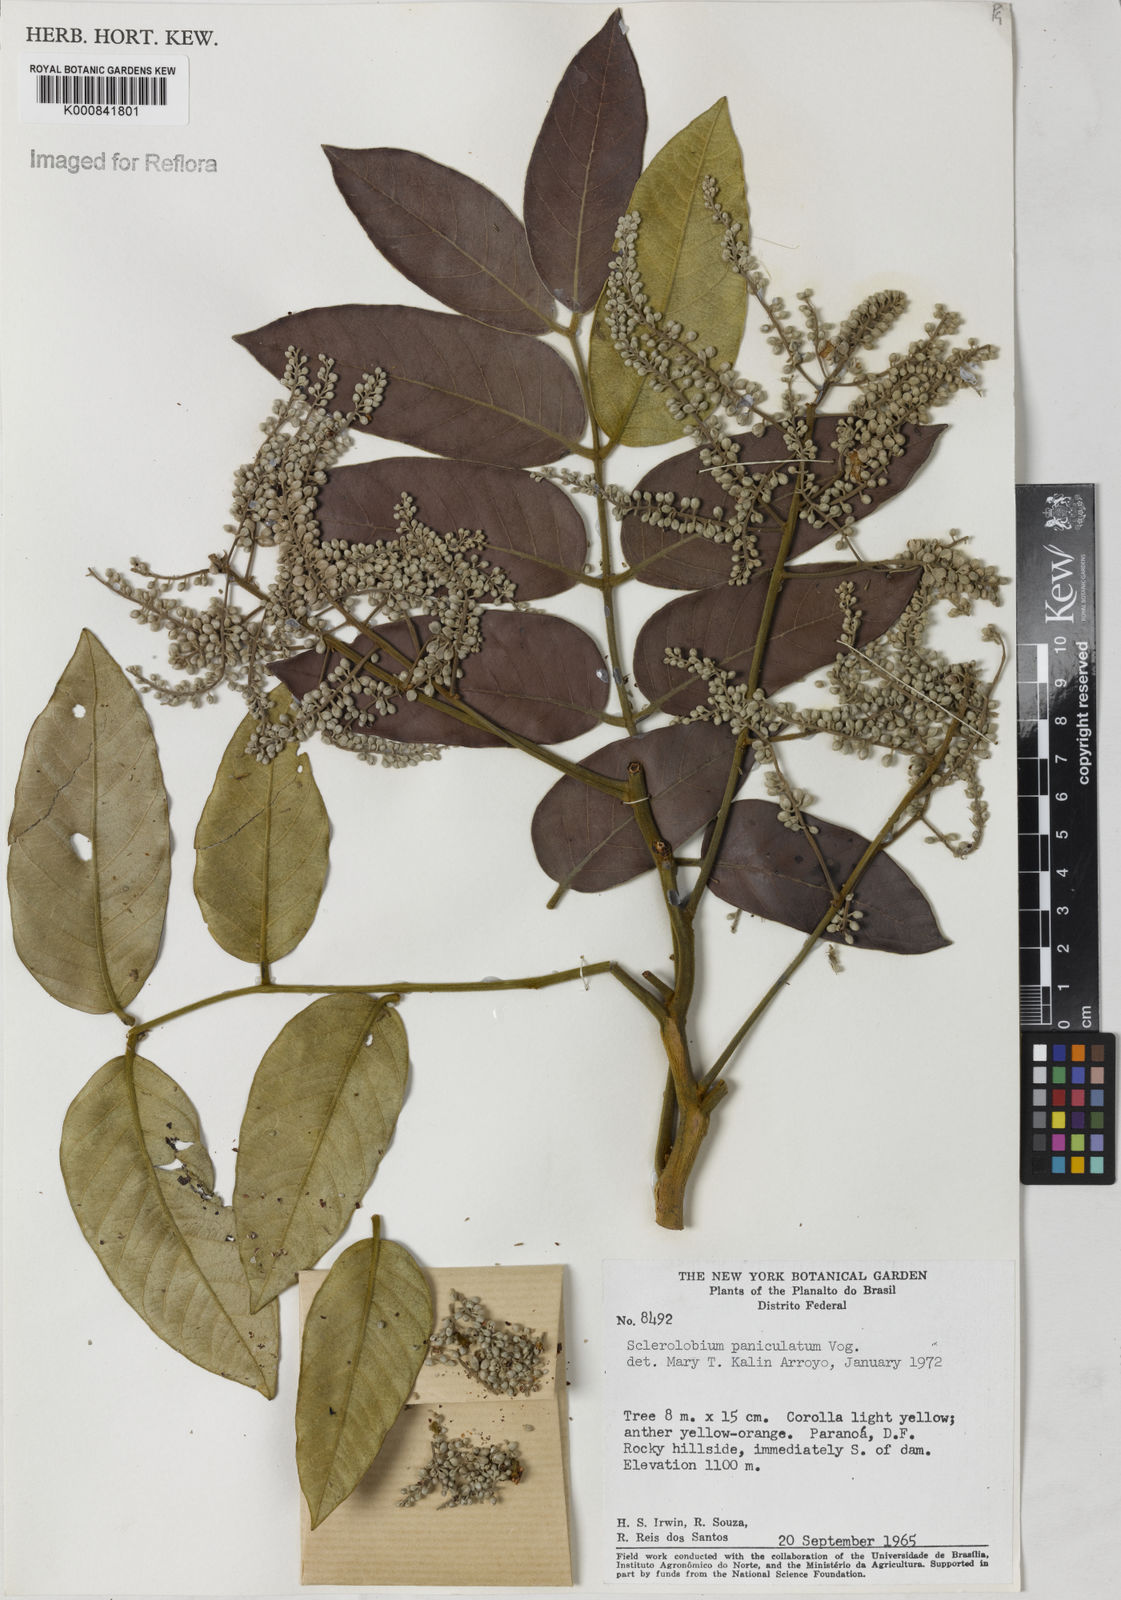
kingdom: Plantae
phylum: Tracheophyta
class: Magnoliopsida
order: Fabales
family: Fabaceae
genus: Tachigali
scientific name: Tachigali subvelutina
